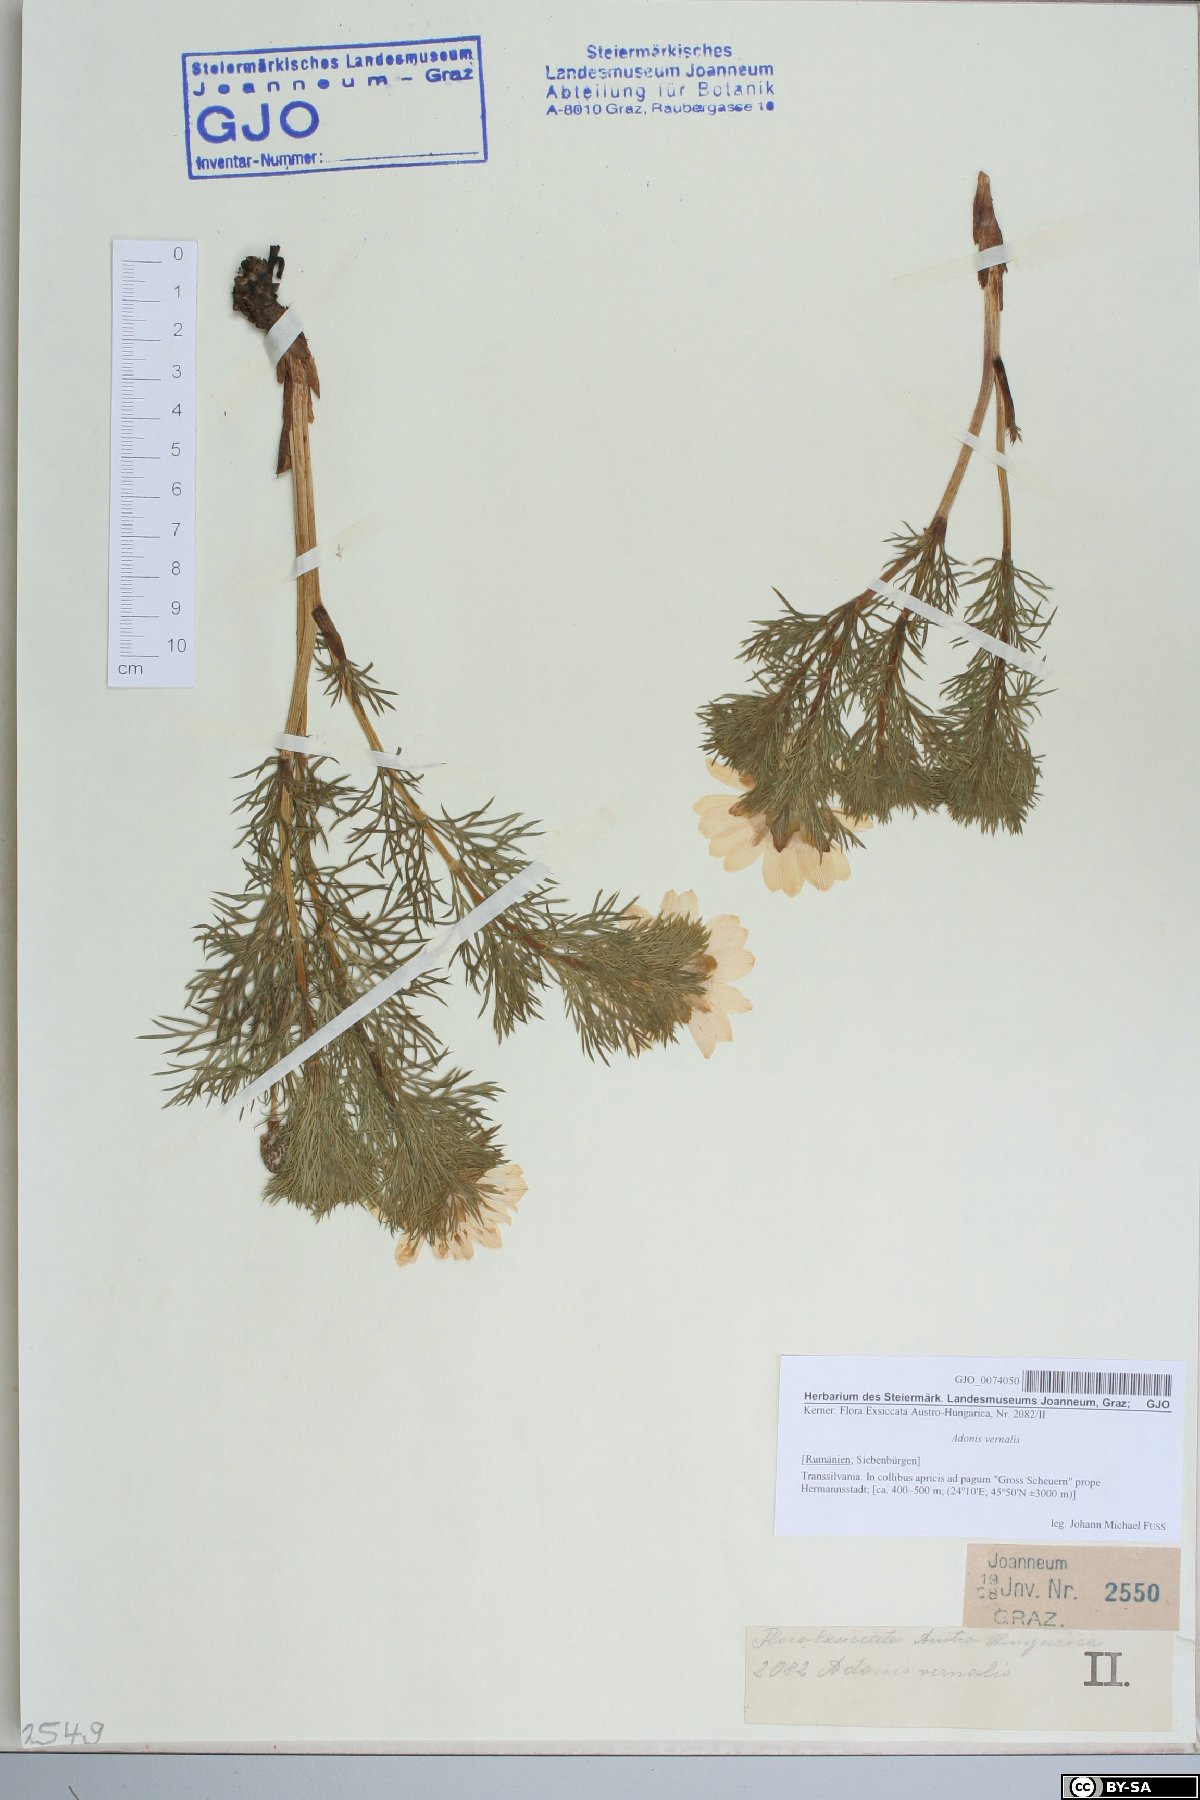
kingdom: Plantae
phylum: Tracheophyta
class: Magnoliopsida
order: Ranunculales
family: Ranunculaceae
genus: Adonis
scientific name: Adonis vernalis
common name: Yellow pheasants-eye
